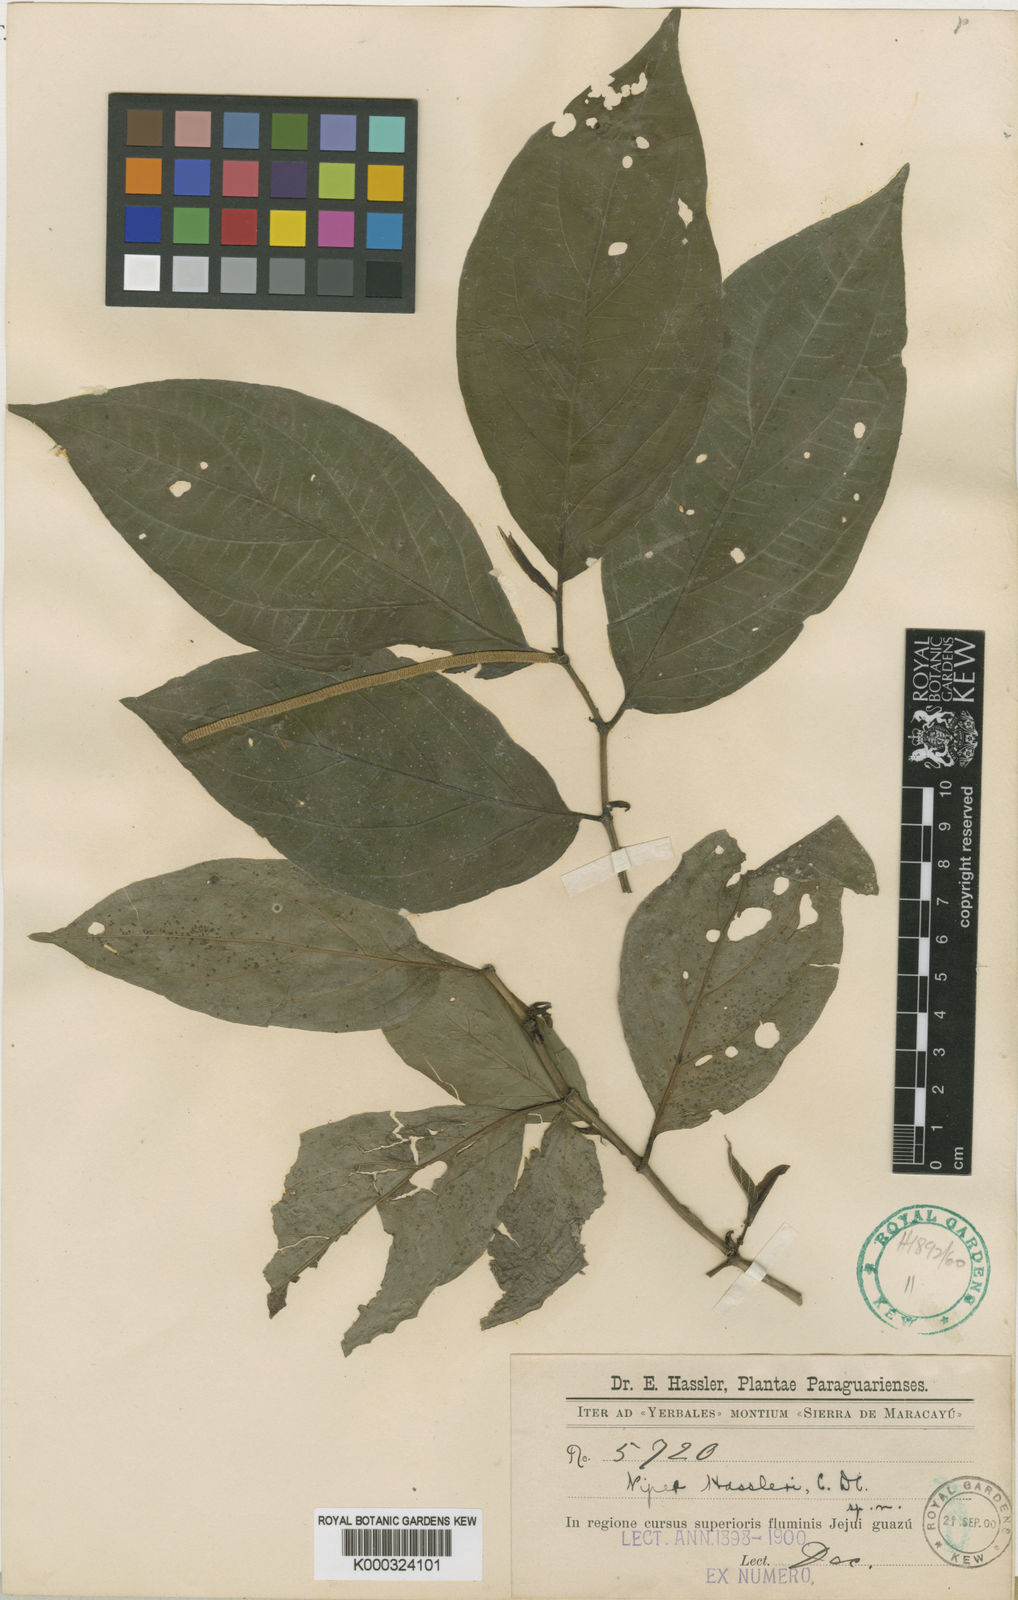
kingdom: Plantae
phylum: Tracheophyta
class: Magnoliopsida
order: Piperales
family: Piperaceae
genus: Piper
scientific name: Piper hassleri
